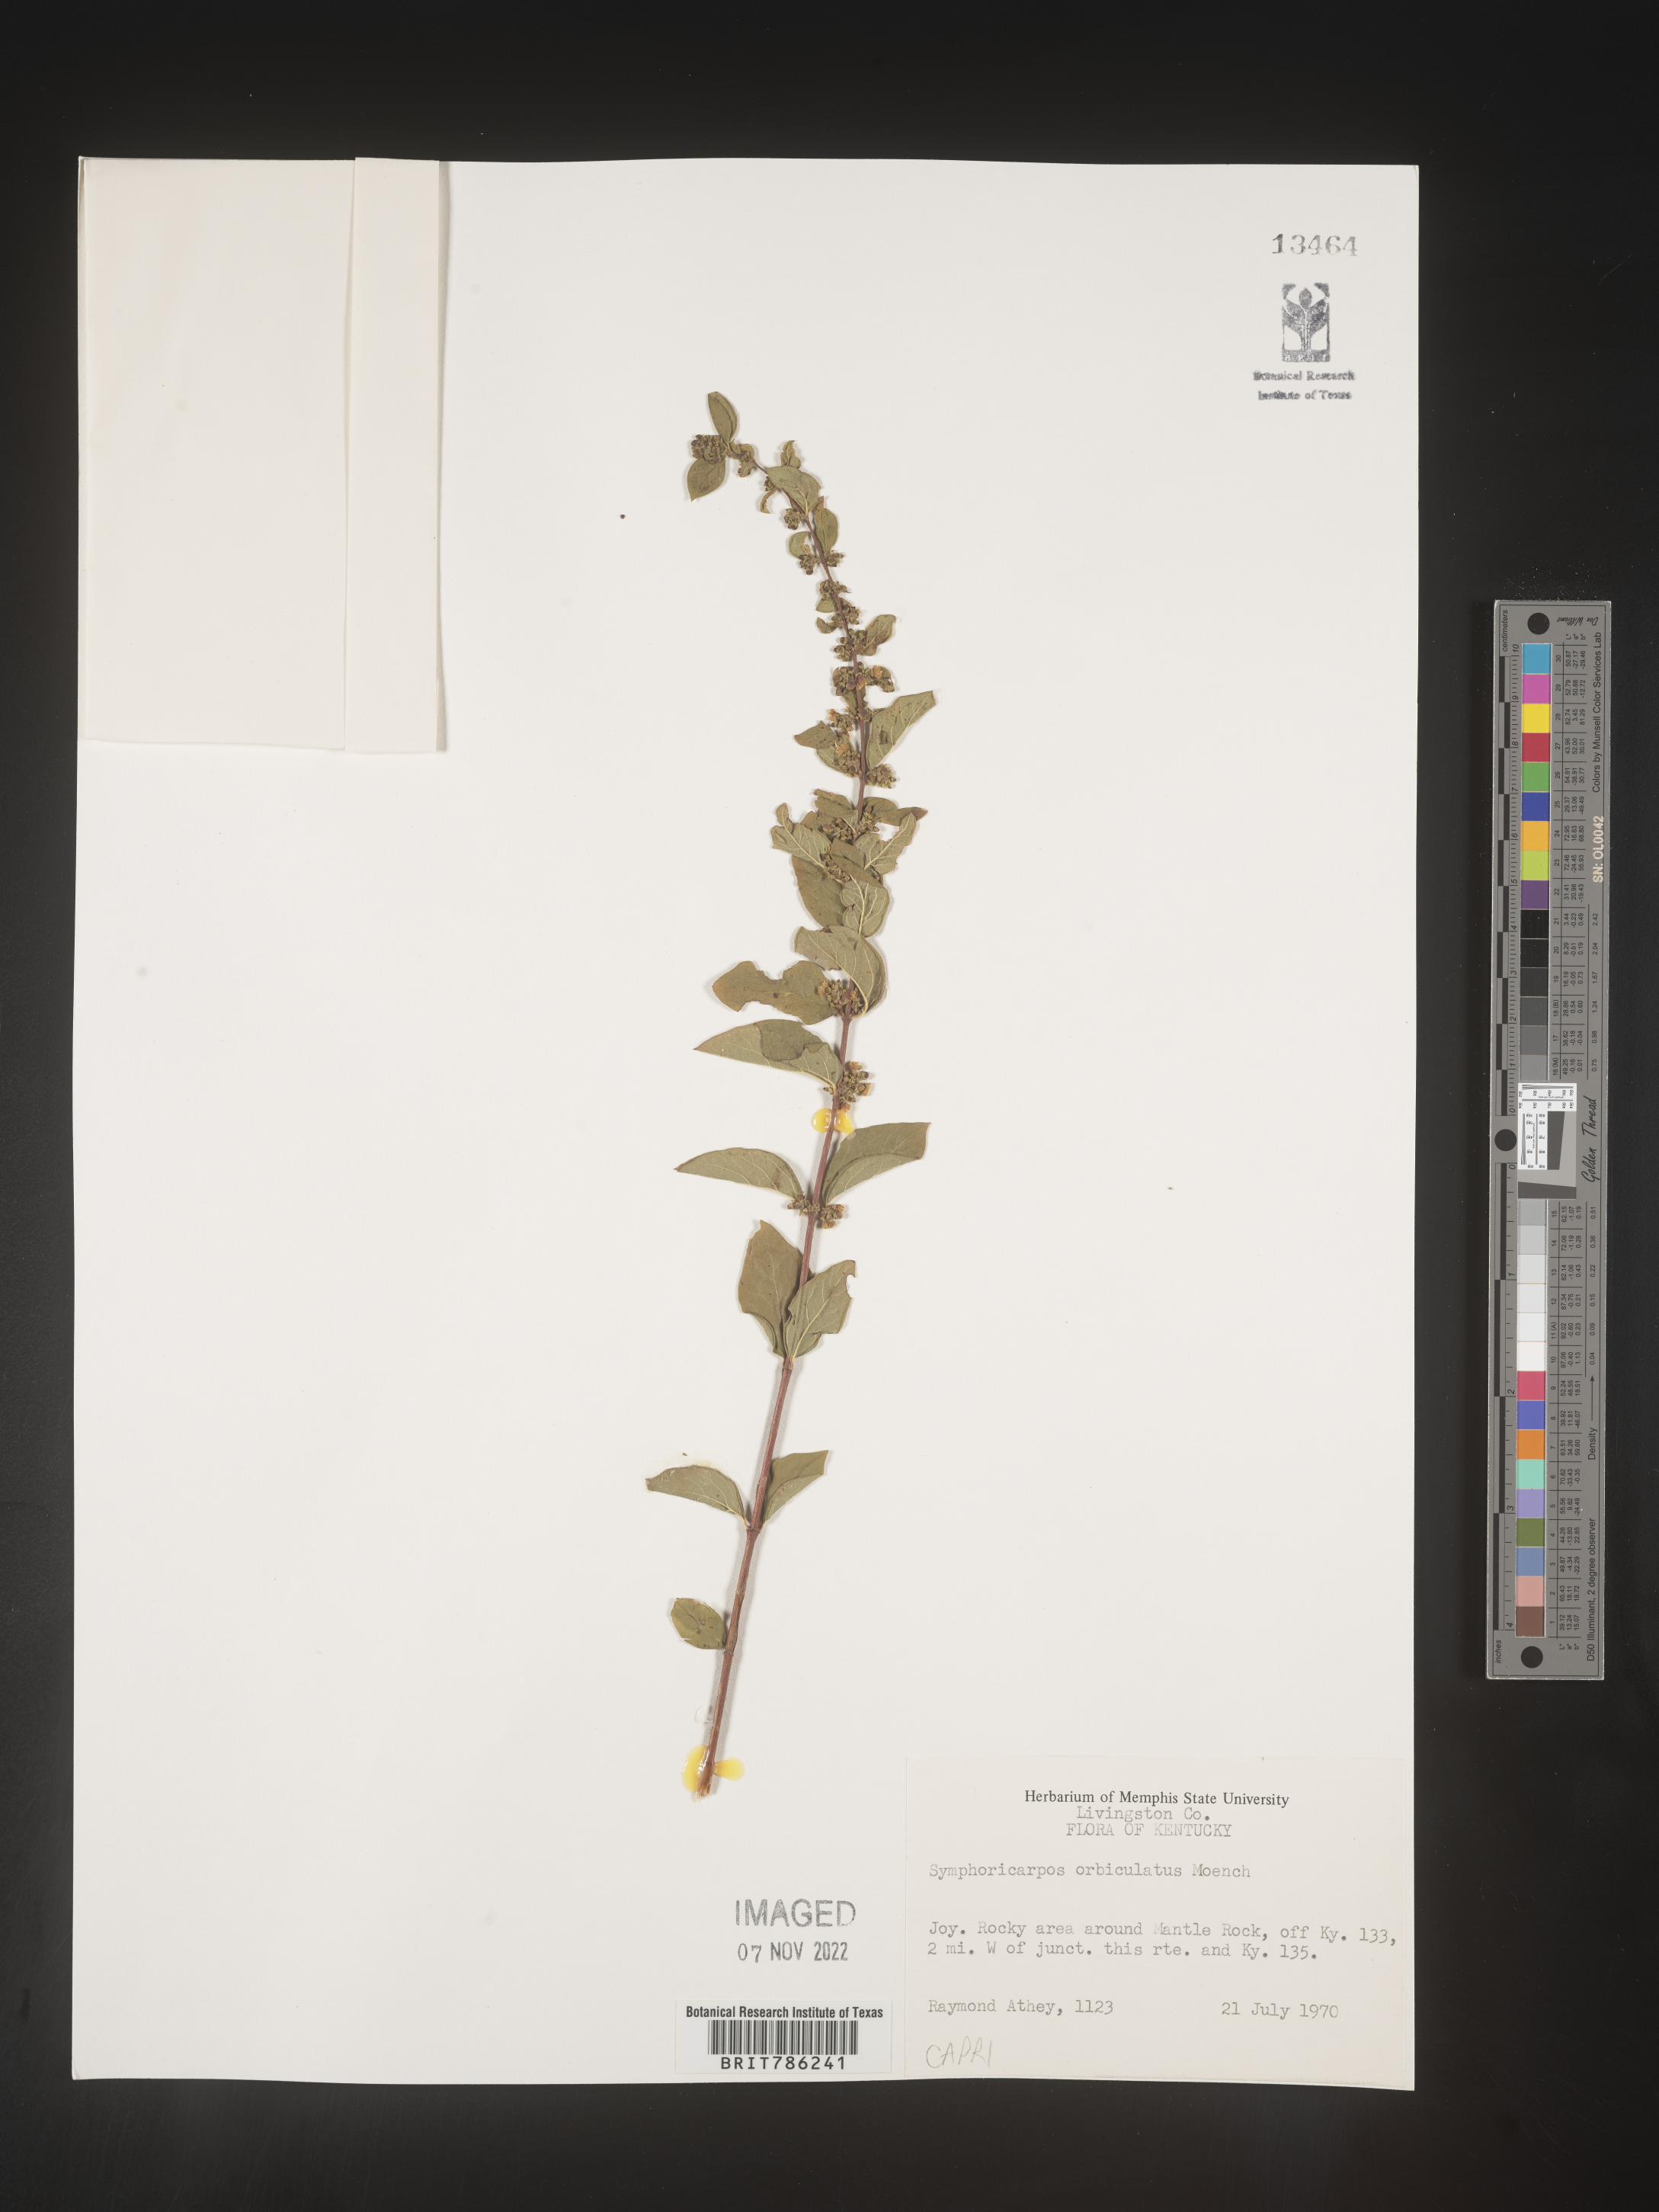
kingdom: Plantae
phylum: Tracheophyta
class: Magnoliopsida
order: Dipsacales
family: Caprifoliaceae
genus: Symphoricarpos
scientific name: Symphoricarpos orbiculatus
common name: Coralberry
